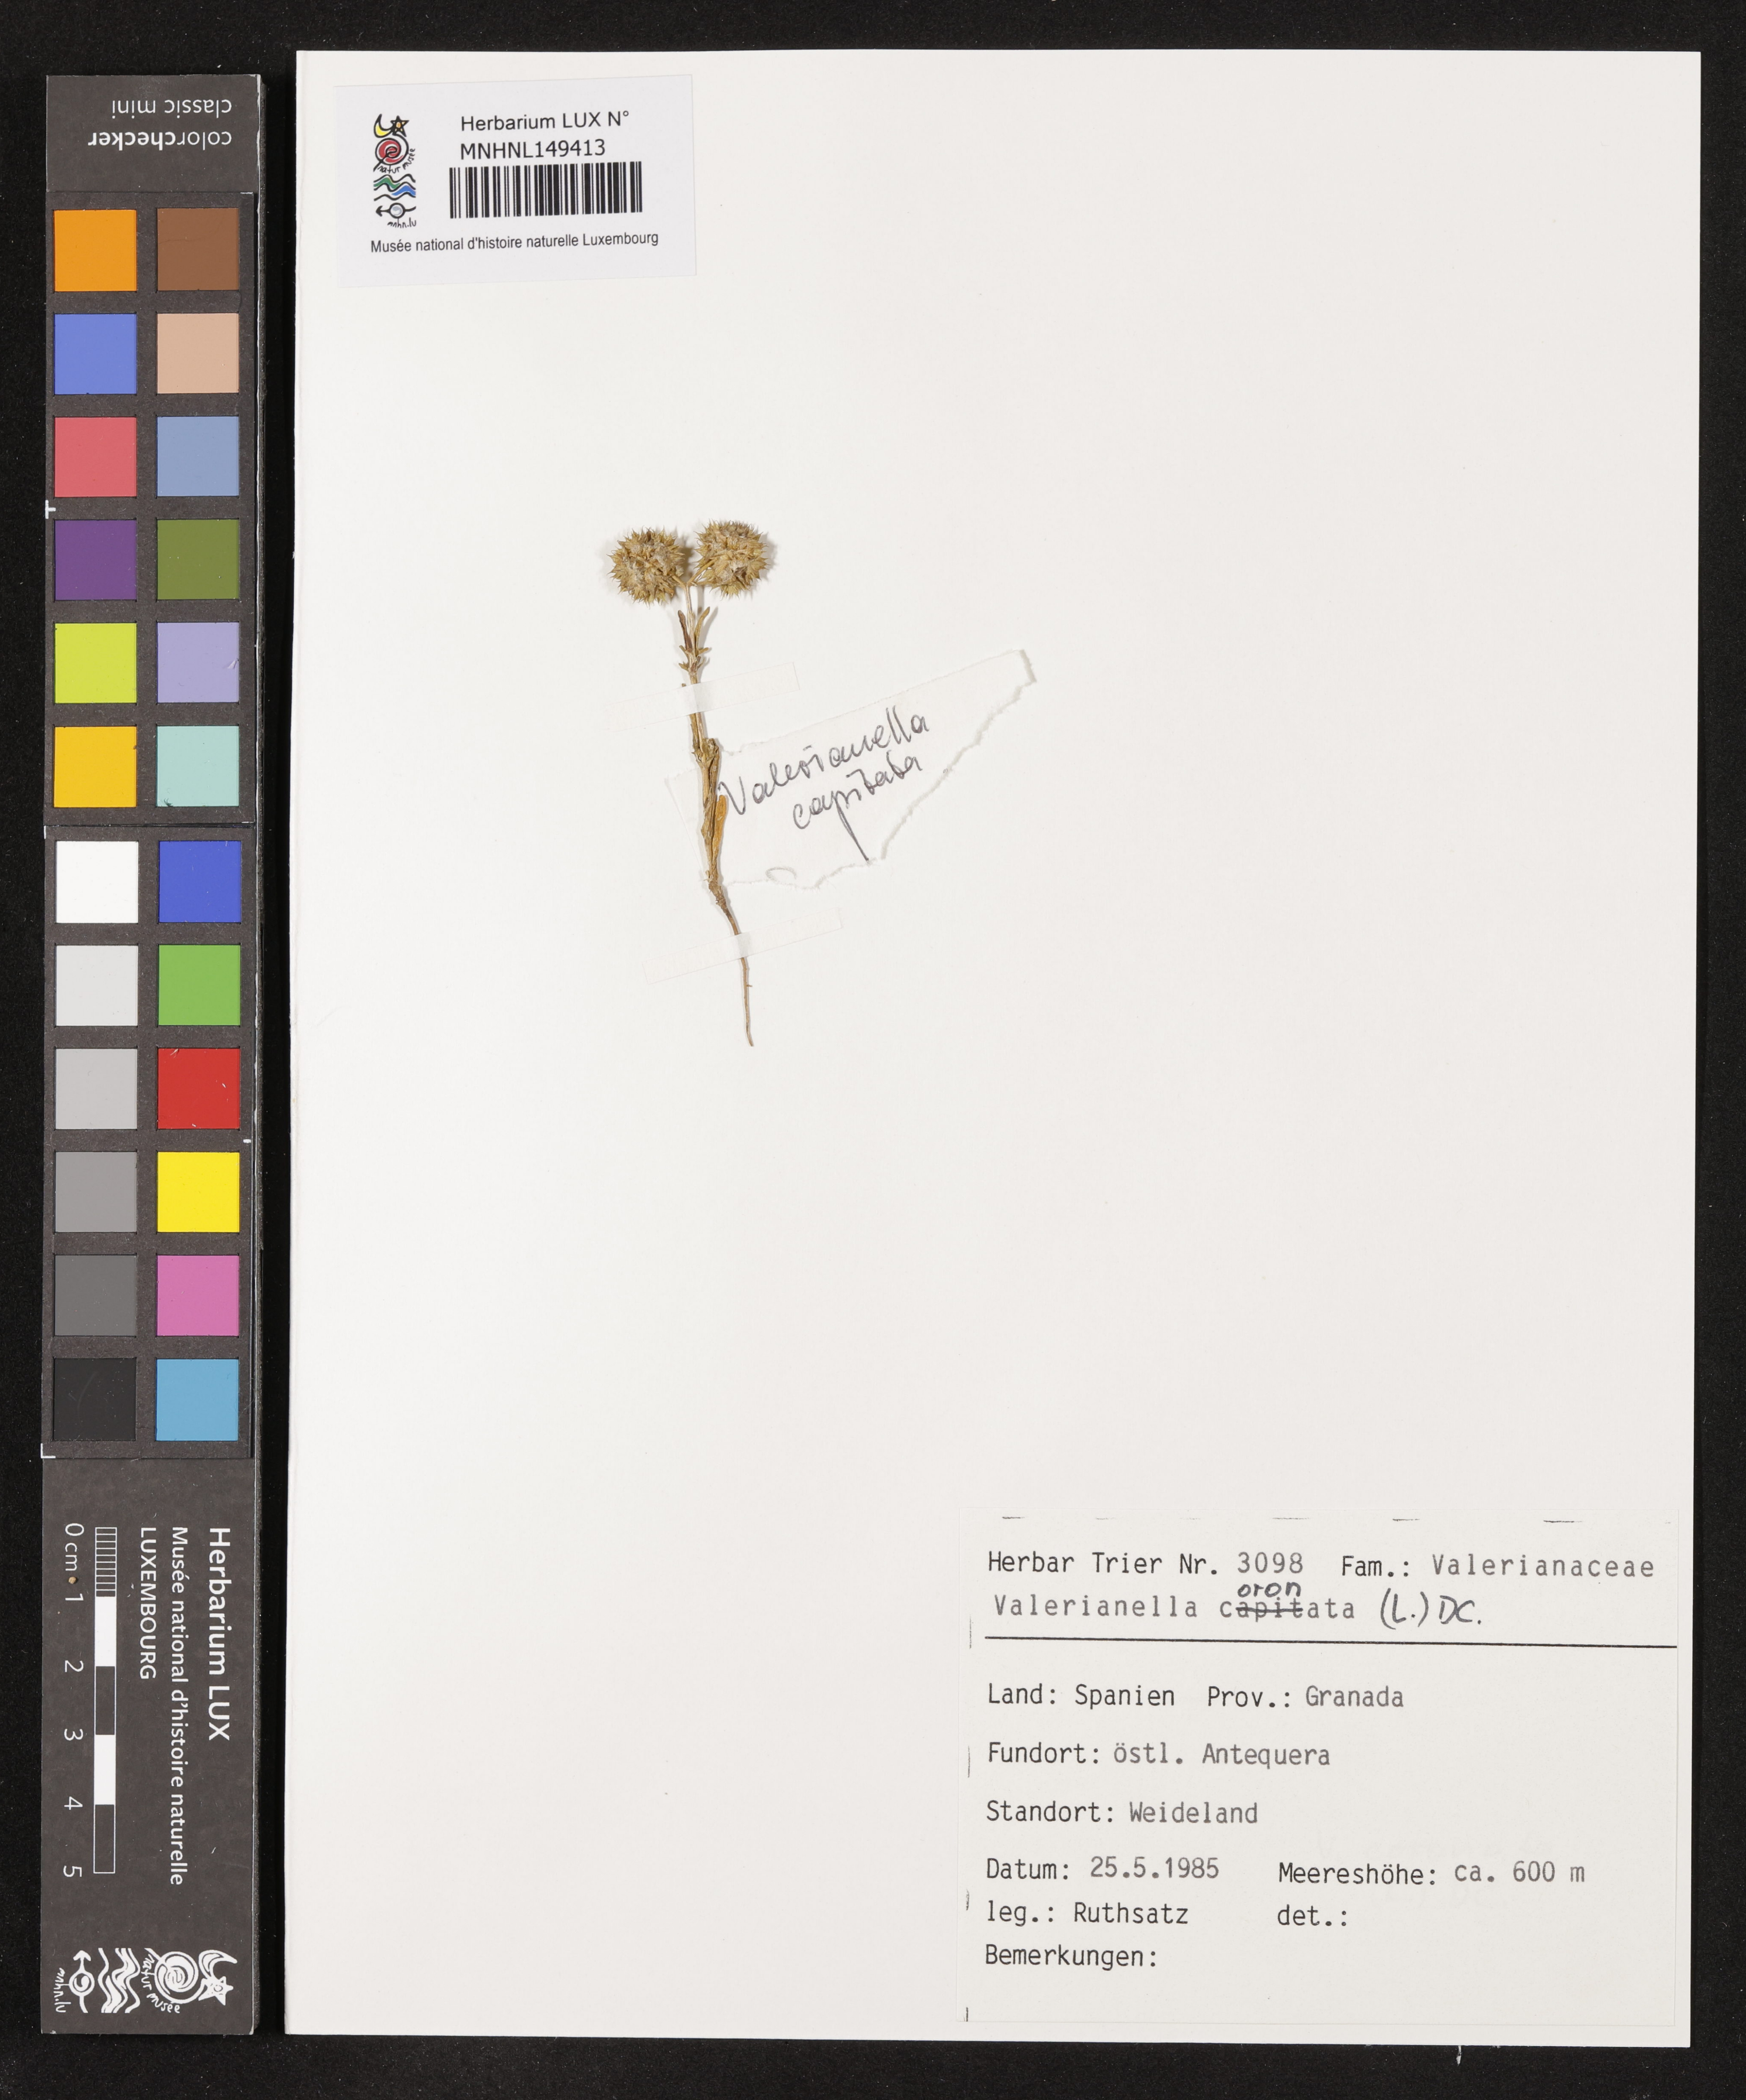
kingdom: Plantae
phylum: Tracheophyta
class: Magnoliopsida
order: Dipsacales
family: Caprifoliaceae
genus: Valerianella
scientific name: Valerianella coronata
